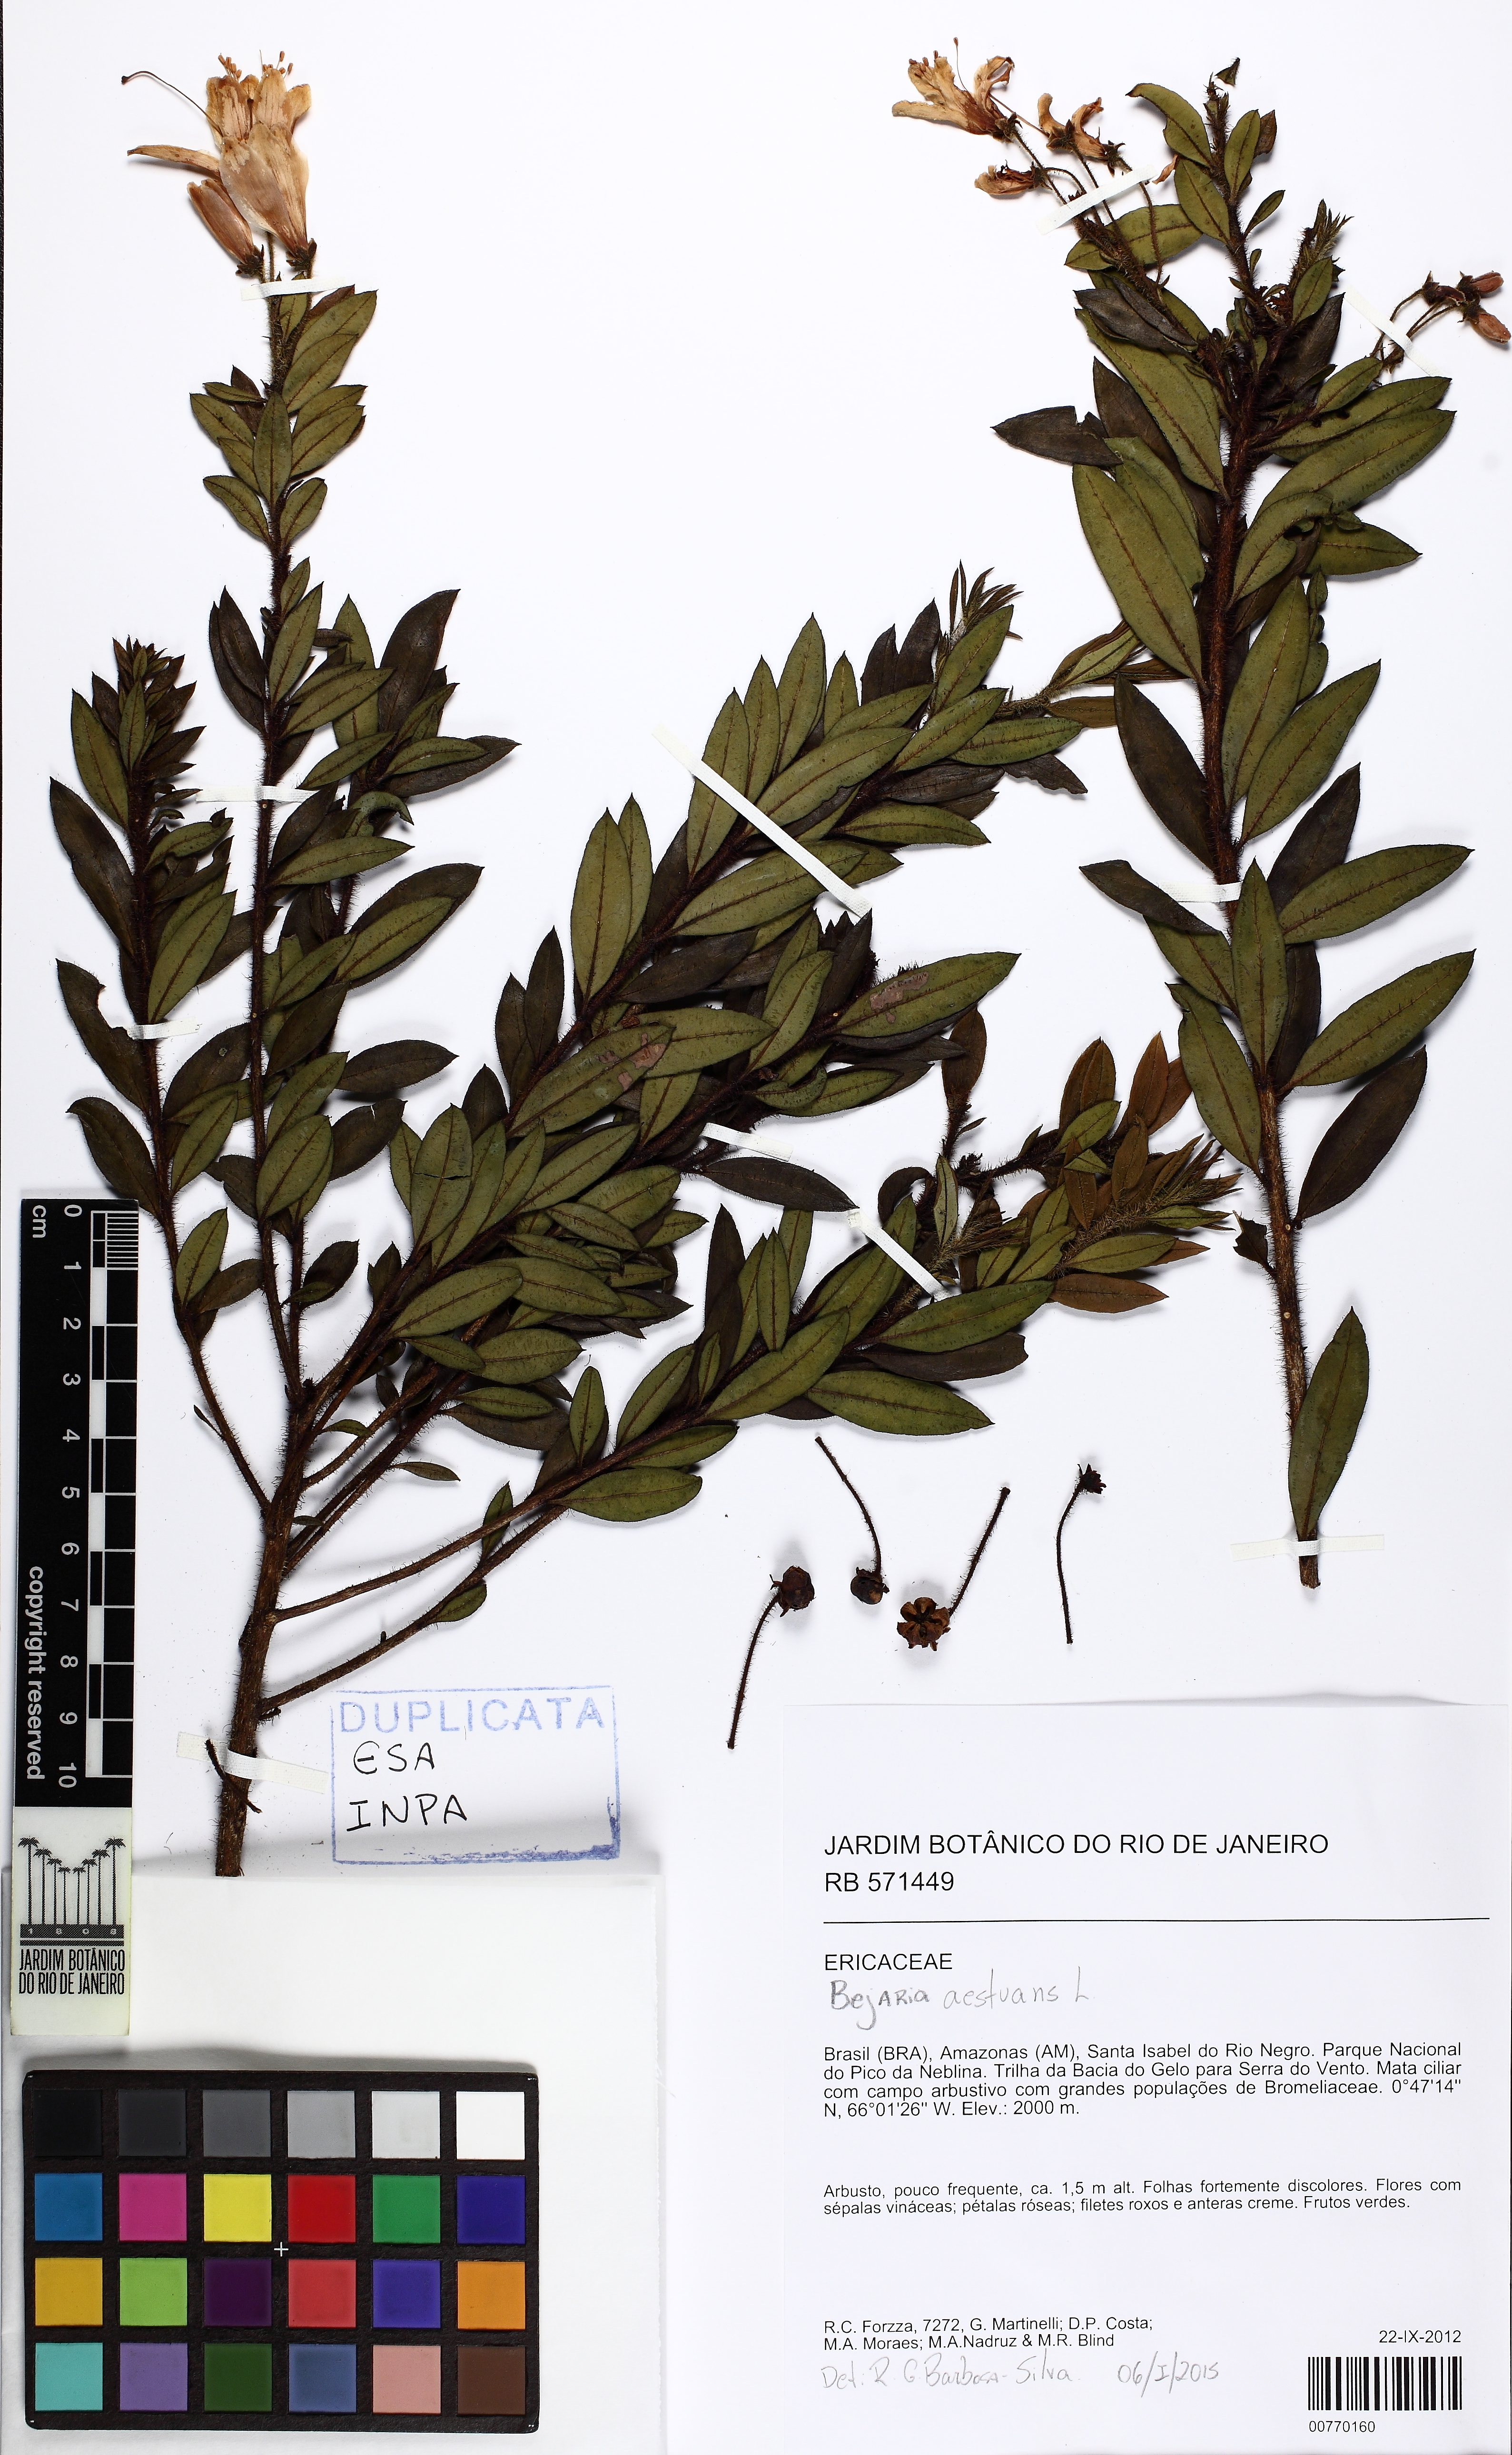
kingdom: Plantae
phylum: Tracheophyta
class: Magnoliopsida
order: Ericales
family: Ericaceae
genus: Bejaria
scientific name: Bejaria aestuans
